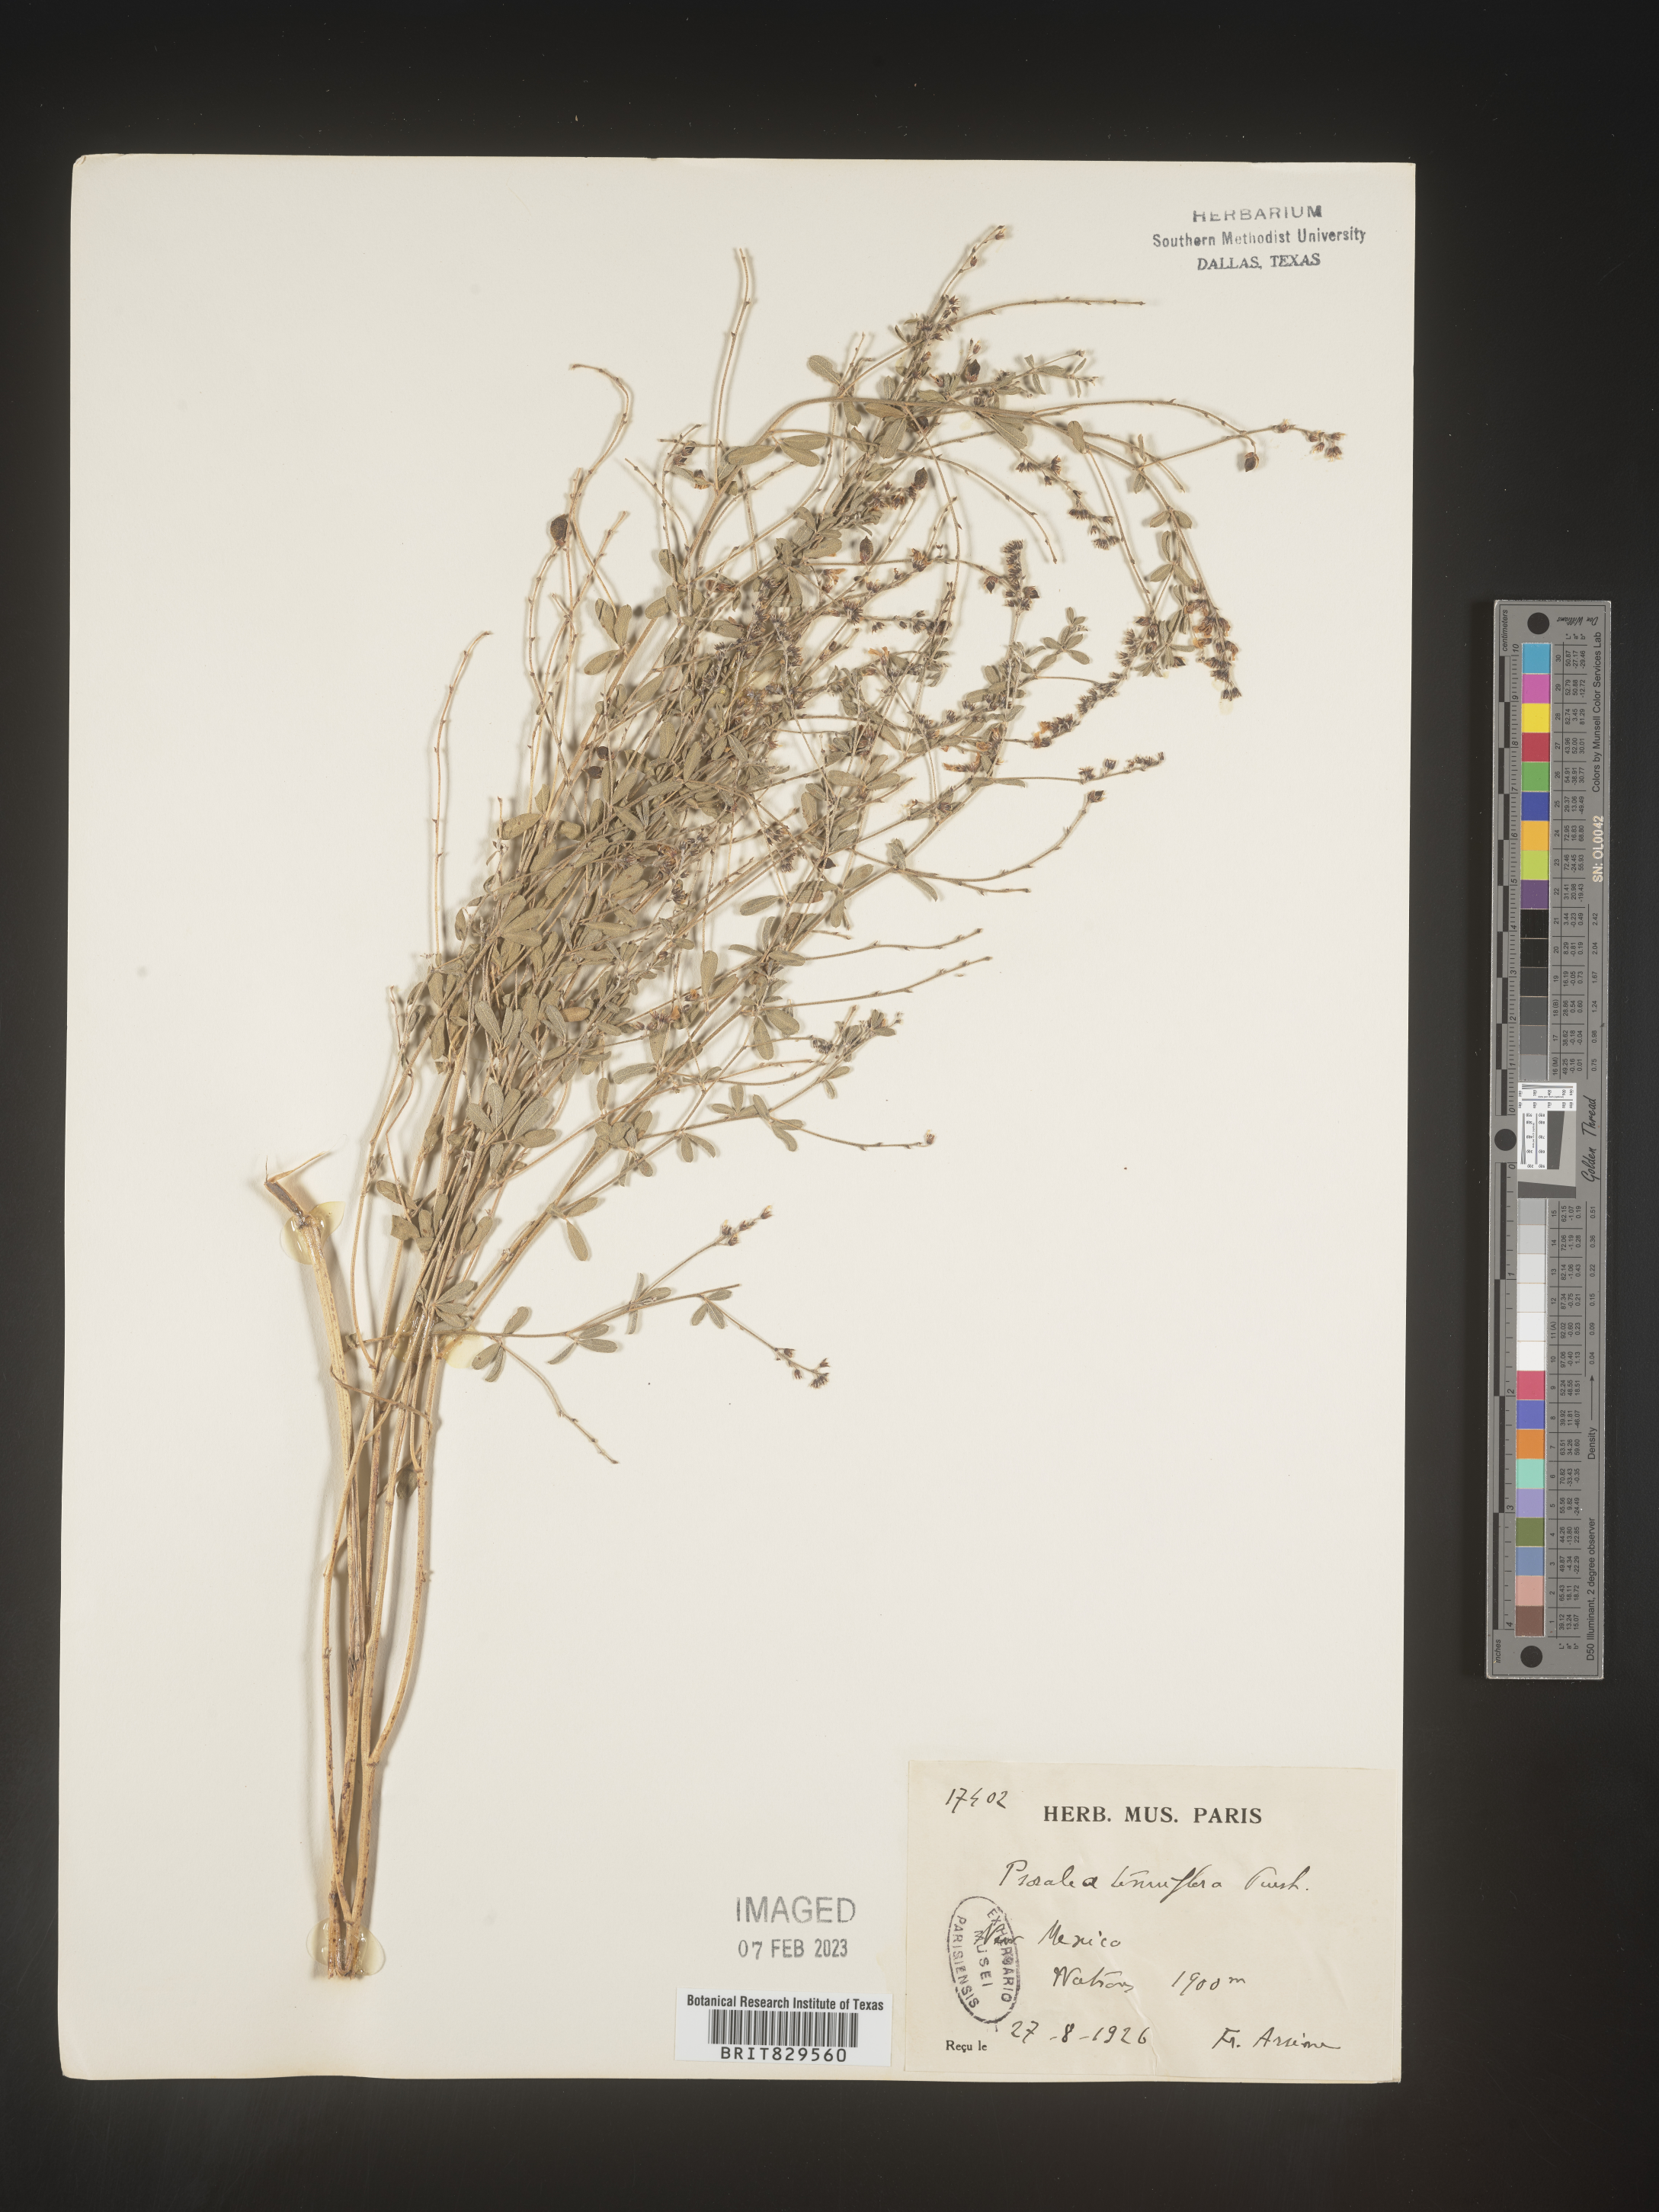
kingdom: Plantae
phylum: Tracheophyta
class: Magnoliopsida
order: Fabales
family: Fabaceae
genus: Pediomelum
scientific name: Pediomelum tenuiflorum
